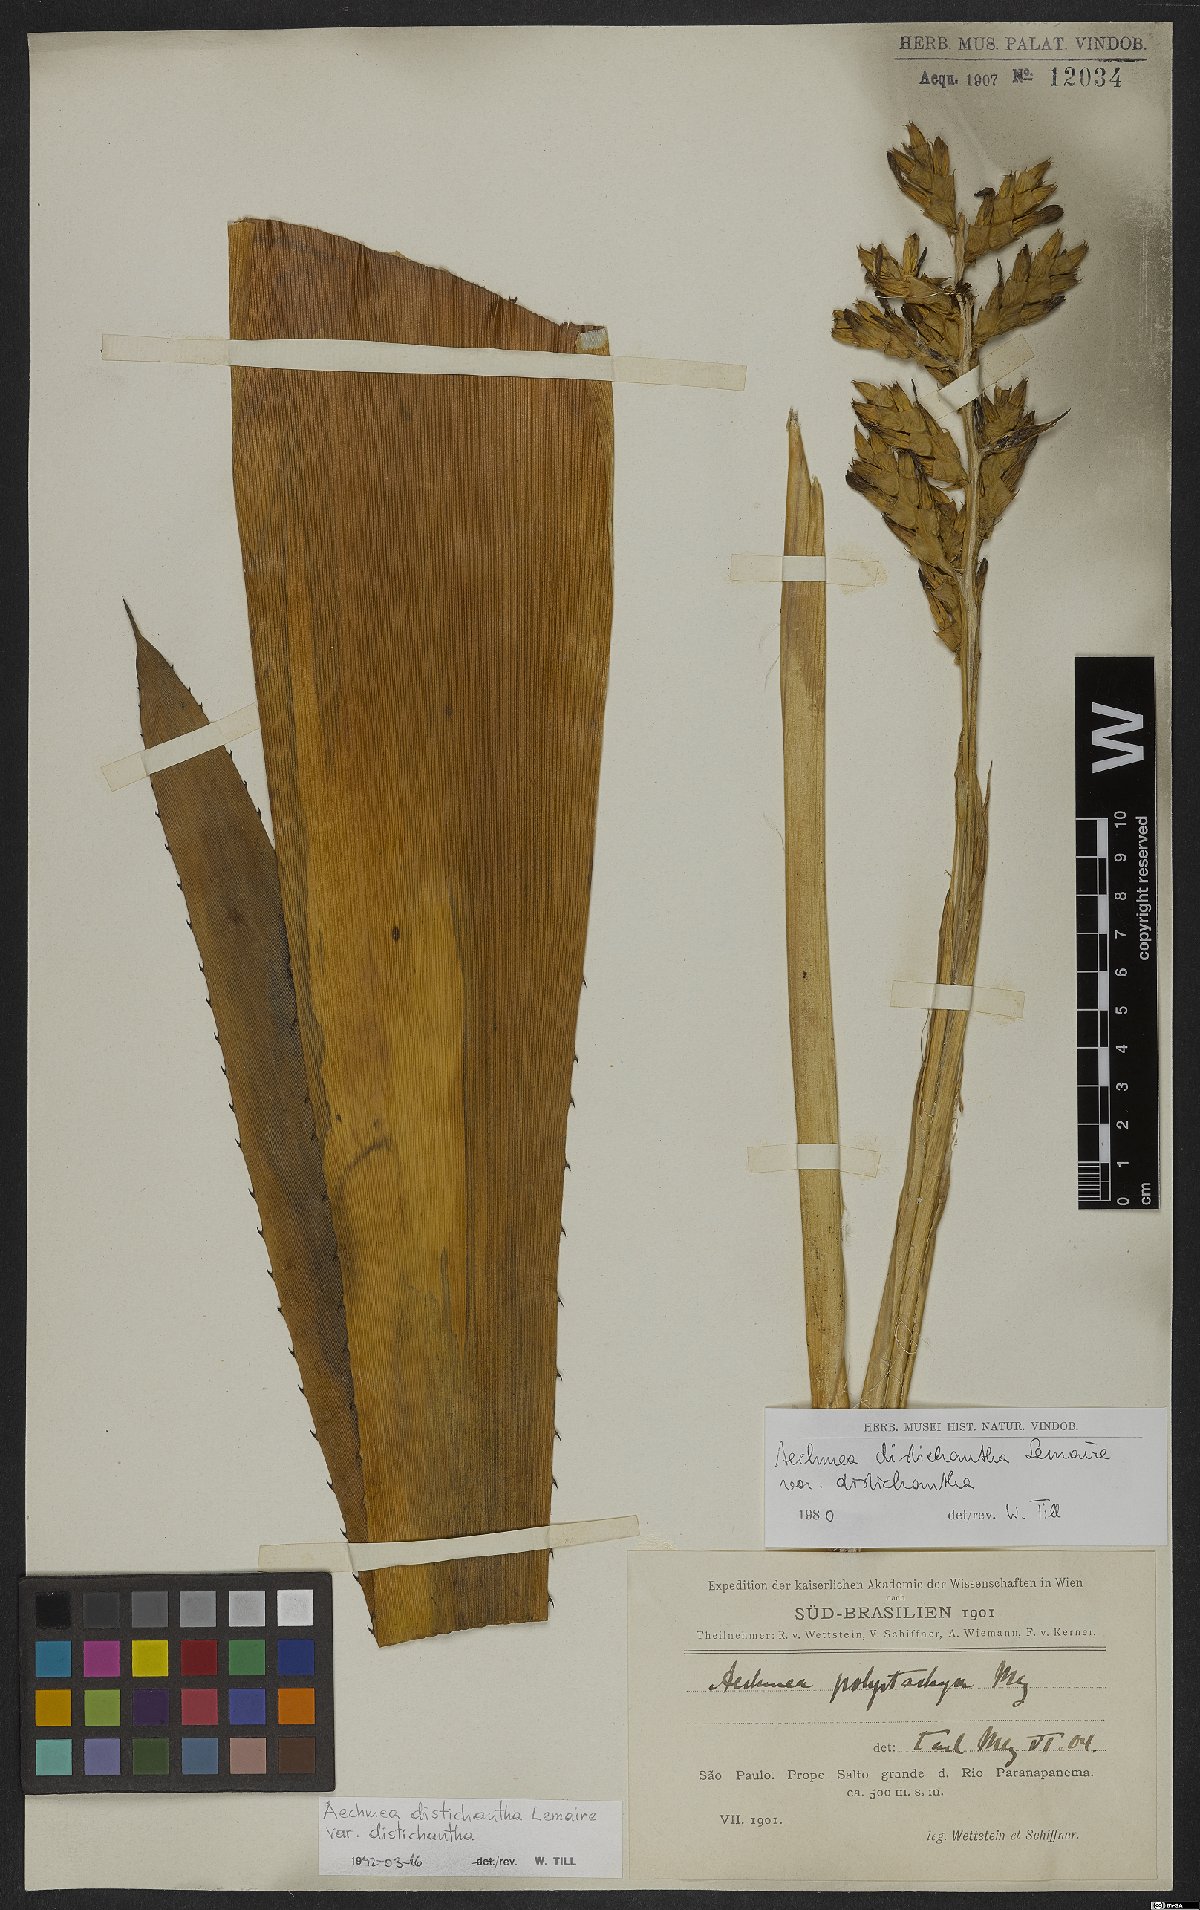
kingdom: Plantae
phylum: Tracheophyta
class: Liliopsida
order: Poales
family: Bromeliaceae
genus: Aechmea
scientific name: Aechmea distichantha
